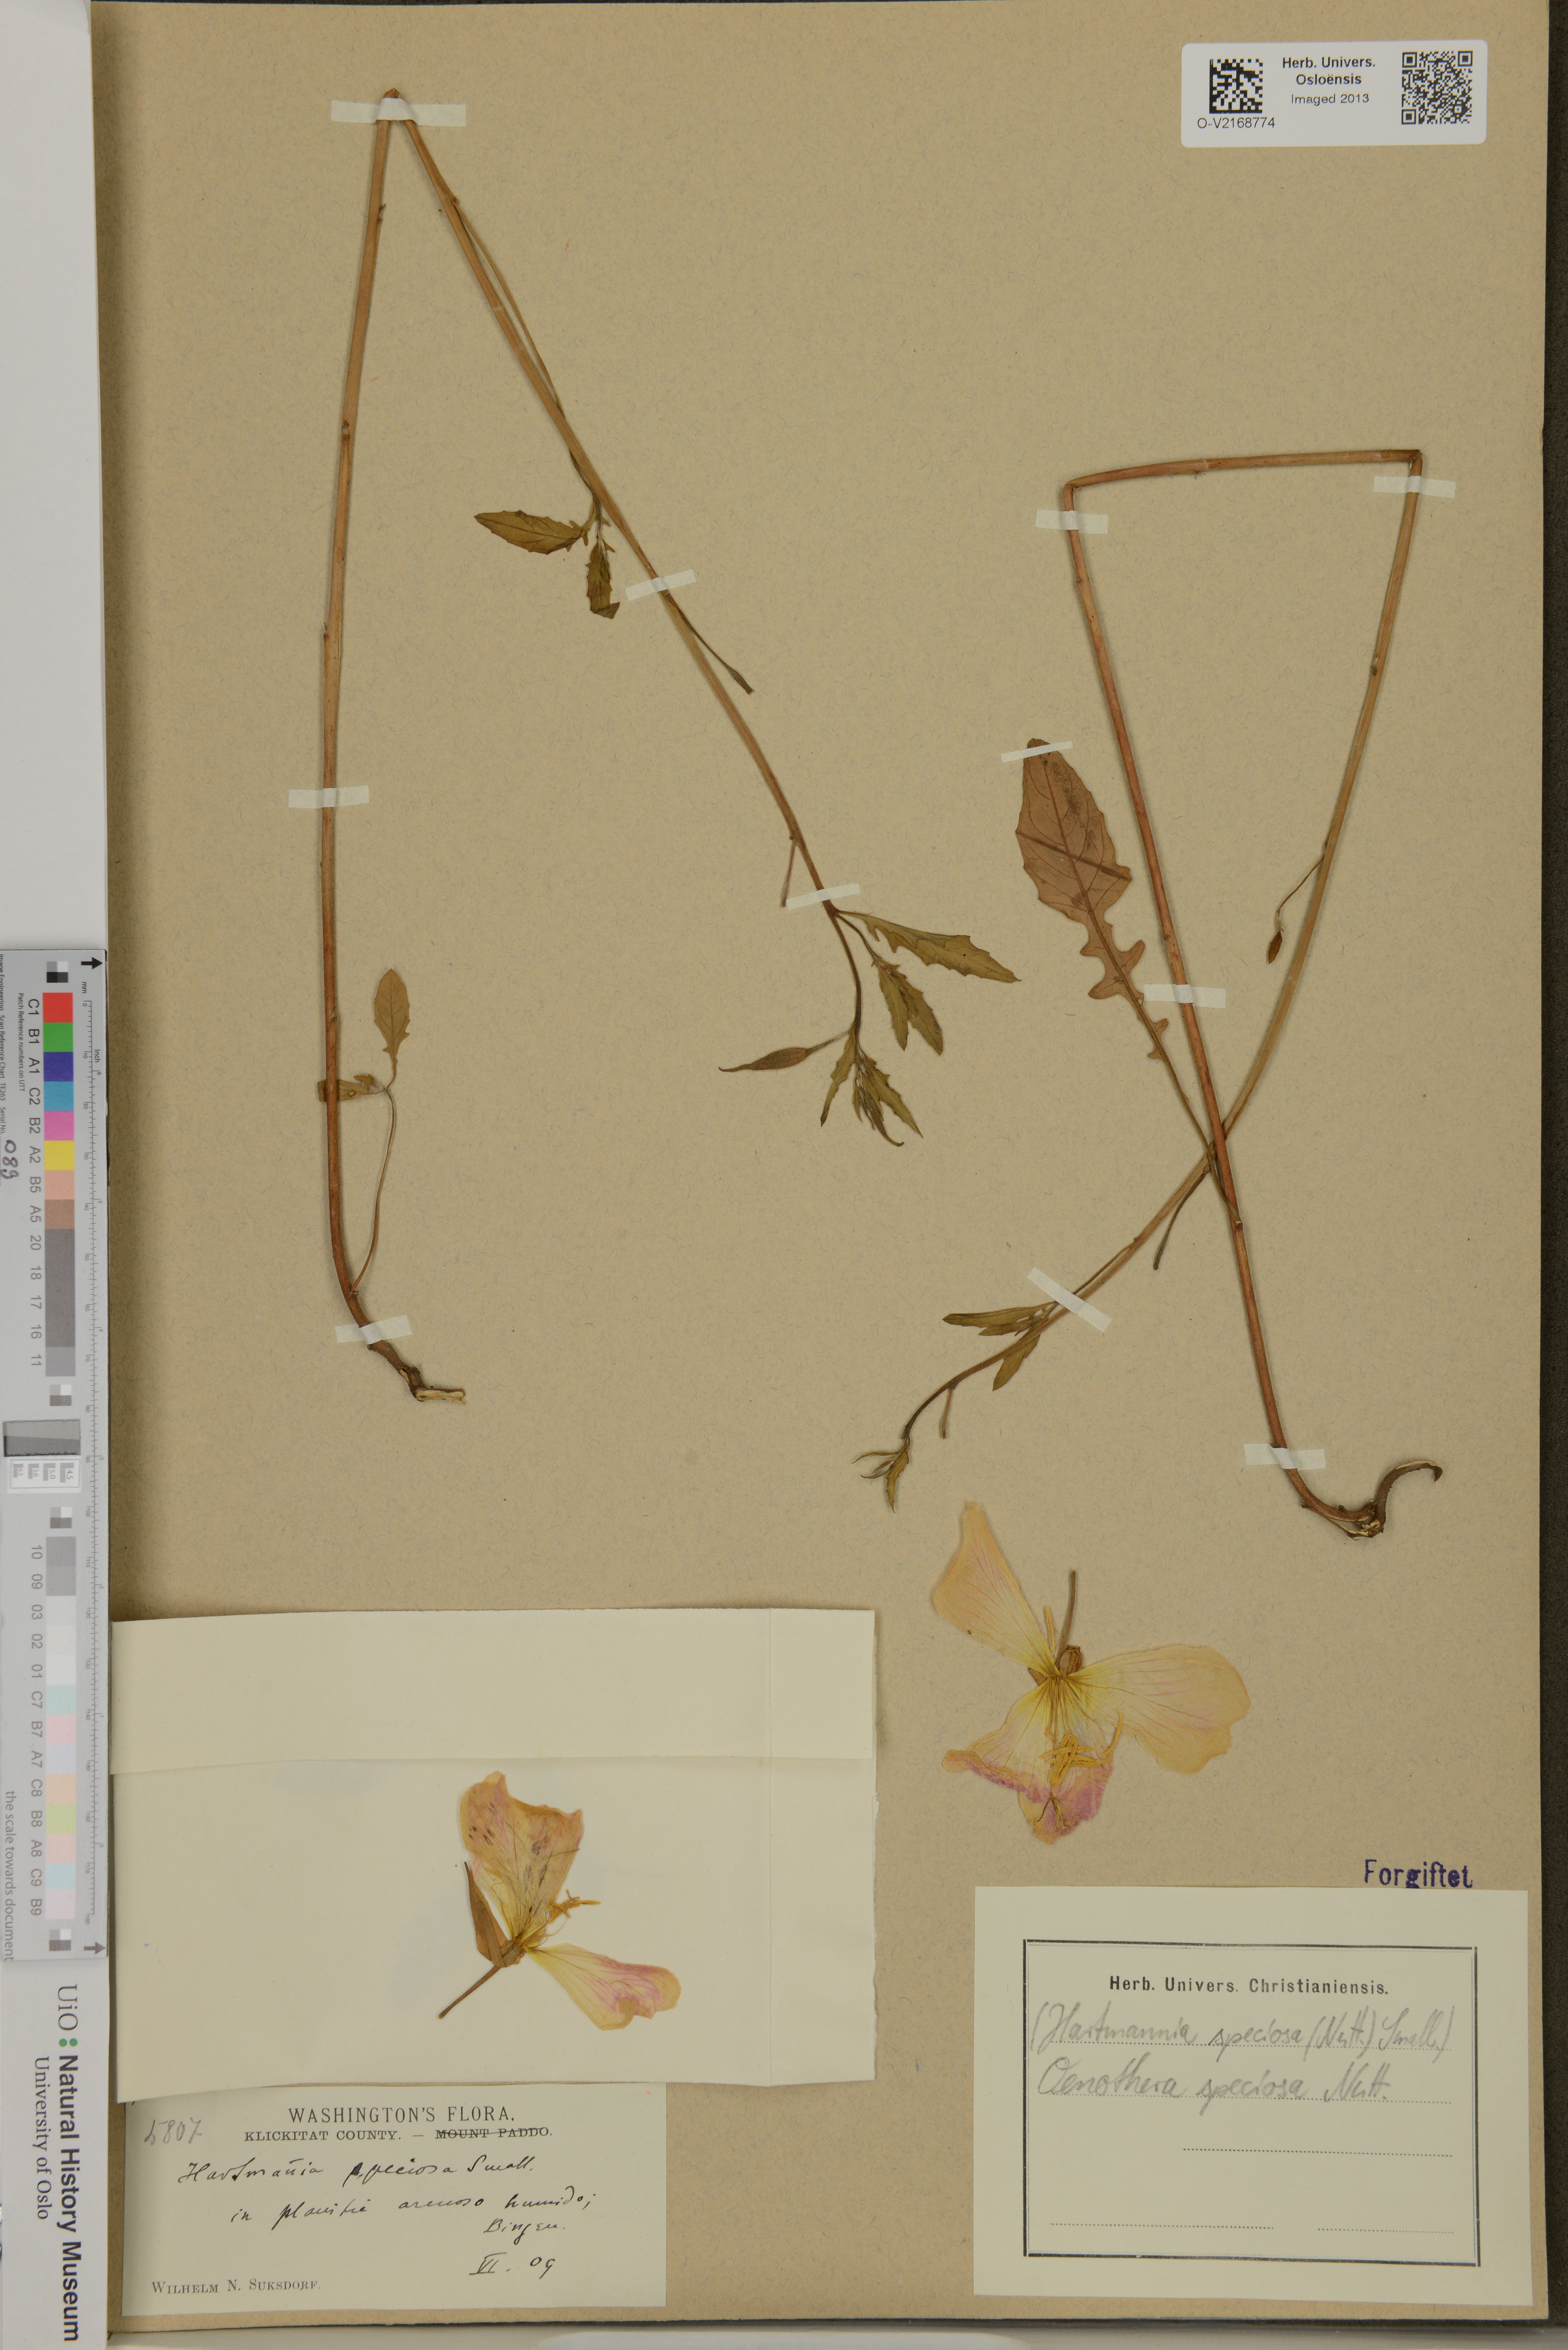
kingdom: Plantae
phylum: Tracheophyta
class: Magnoliopsida
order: Myrtales
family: Onagraceae
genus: Oenothera
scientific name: Oenothera speciosa
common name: White evening-primrose
